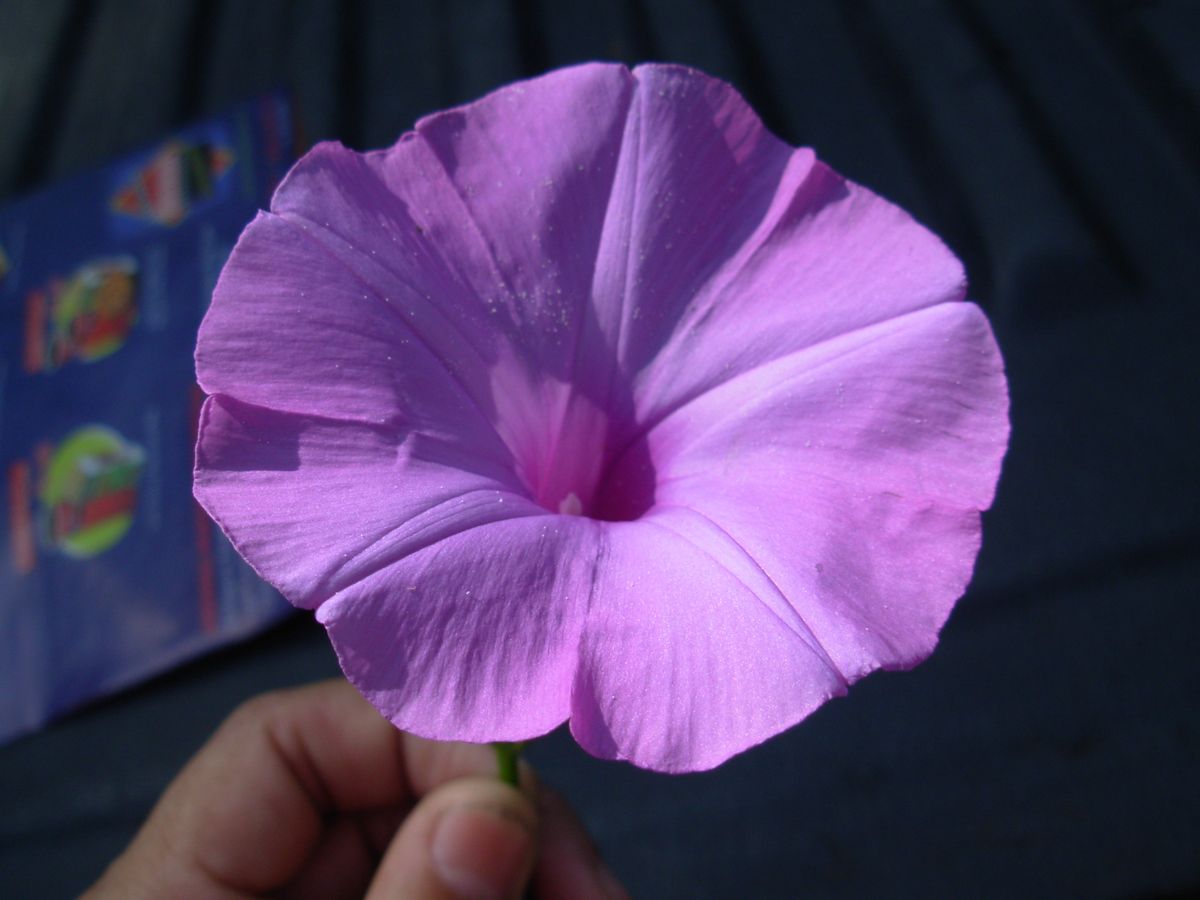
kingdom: Plantae
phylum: Tracheophyta
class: Magnoliopsida
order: Solanales
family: Convolvulaceae
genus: Ipomoea
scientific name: Ipomoea
